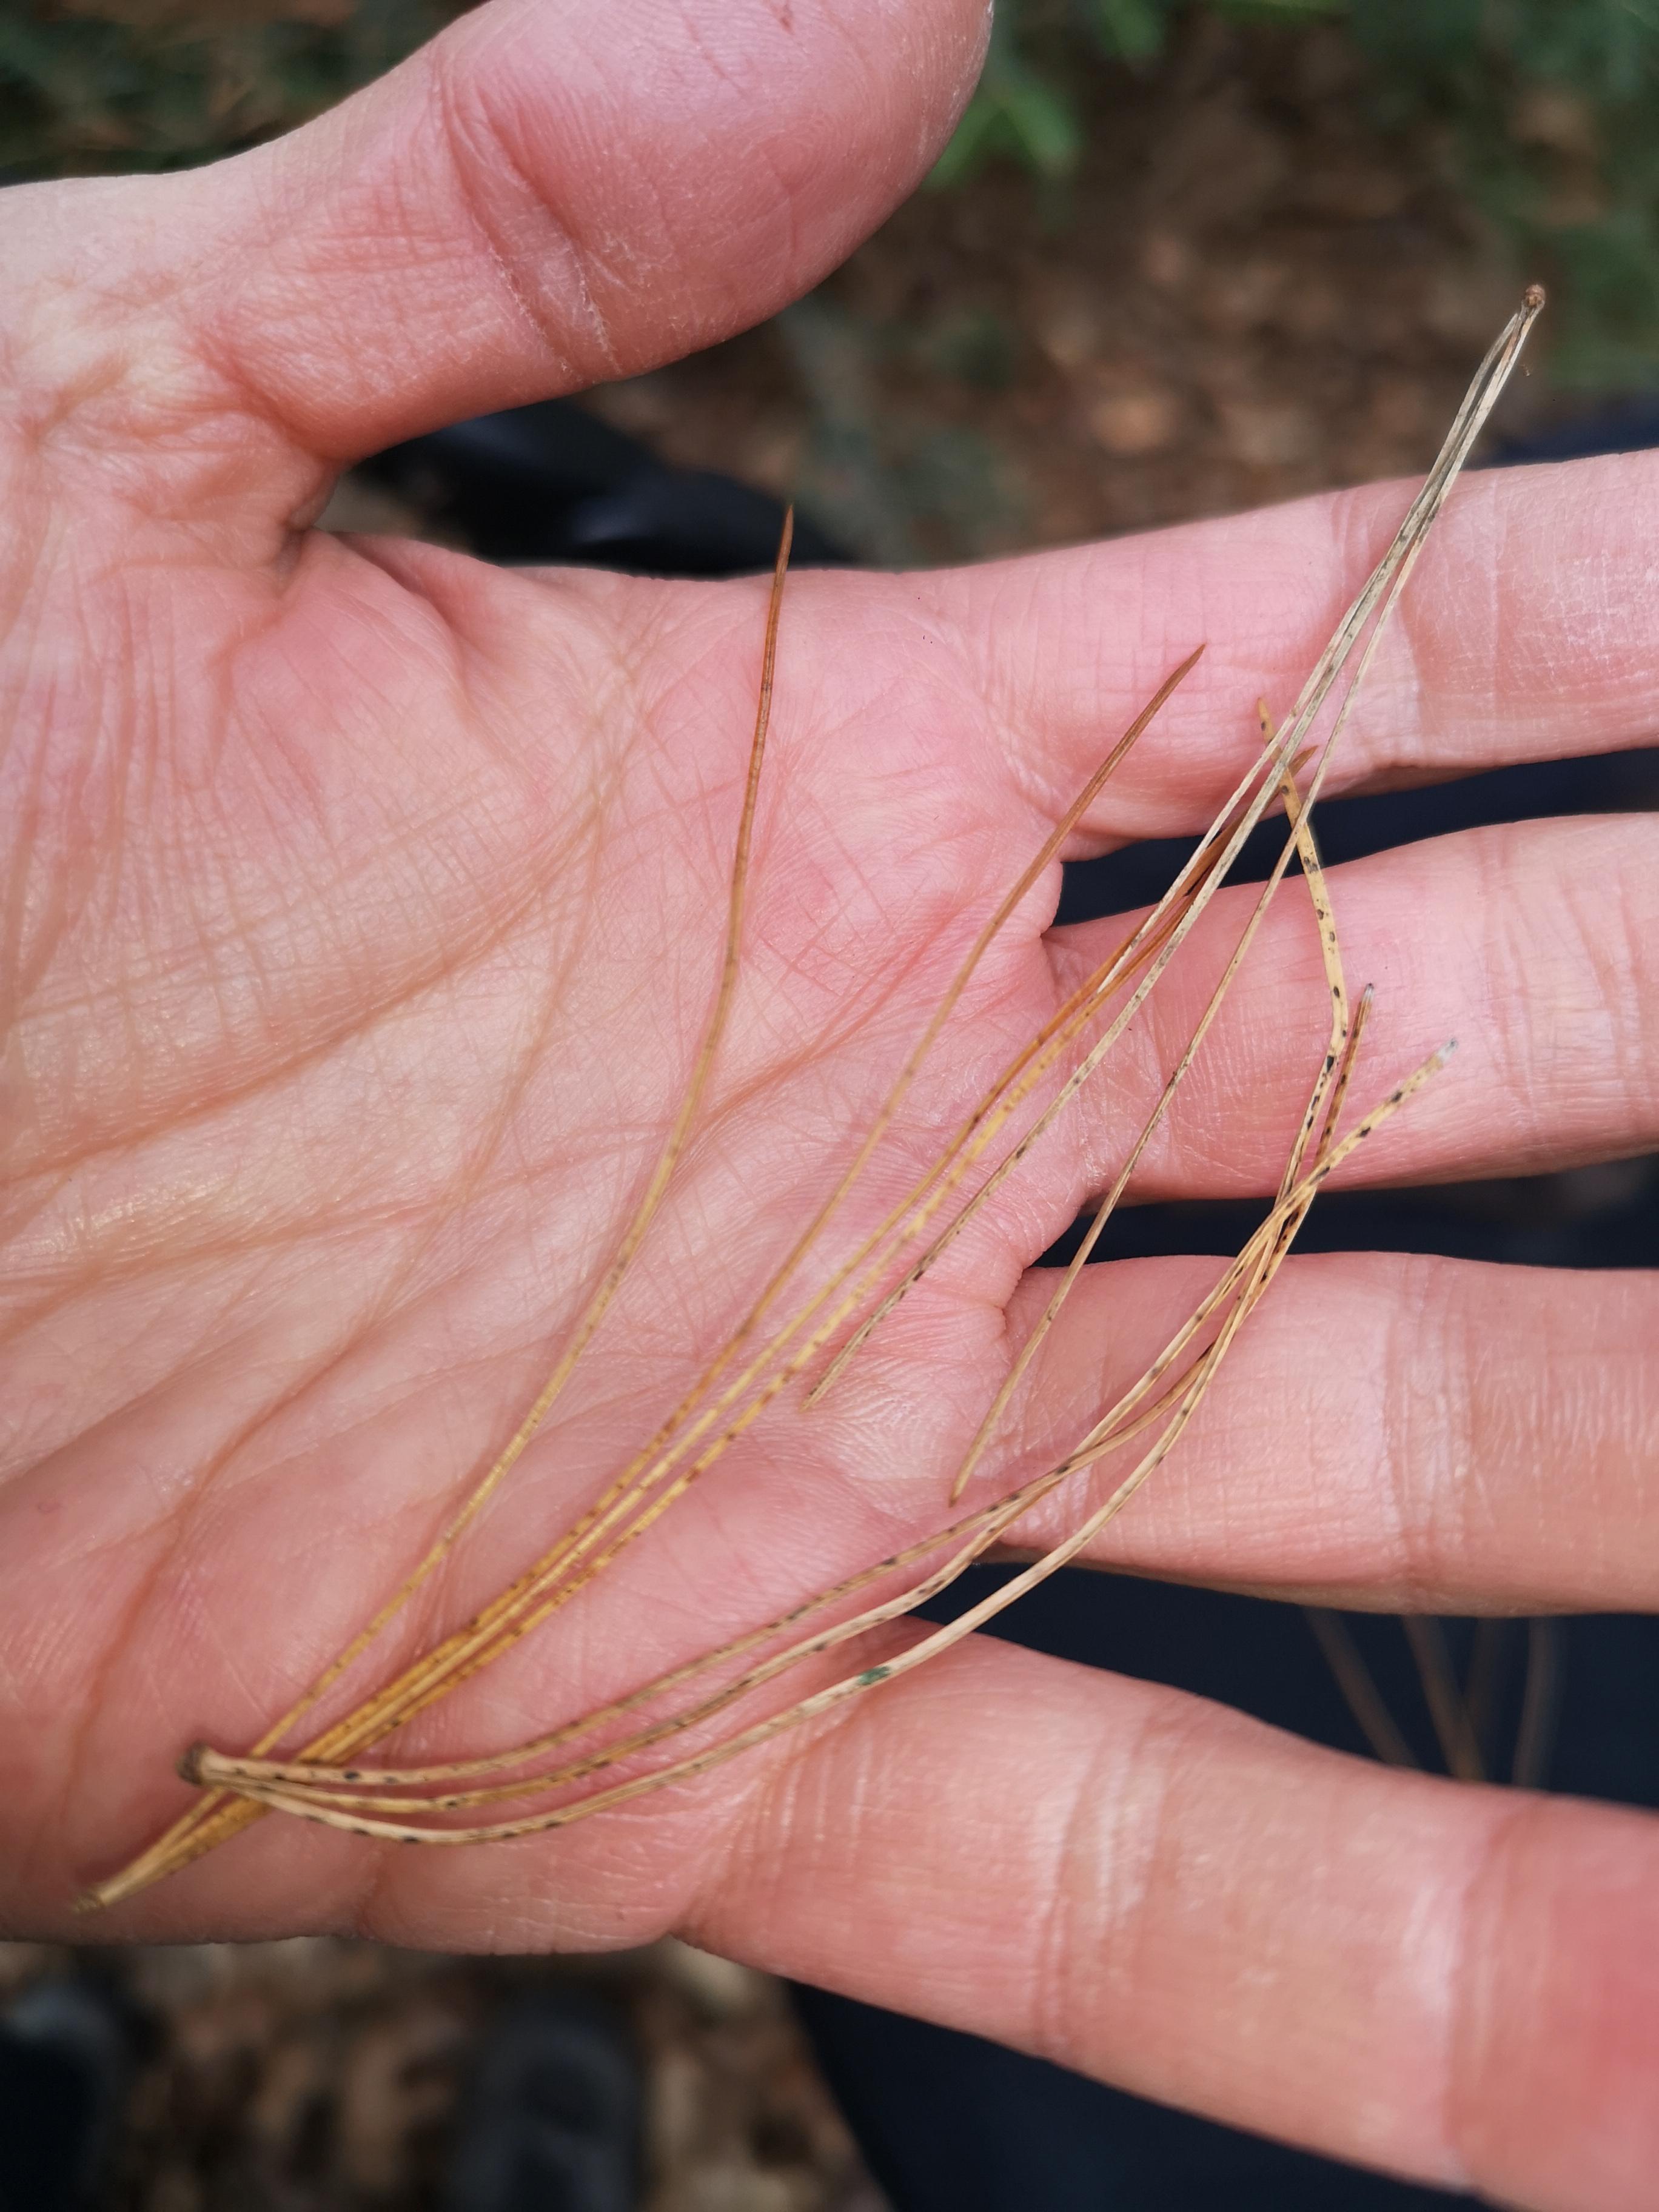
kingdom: Fungi
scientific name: Fungi
